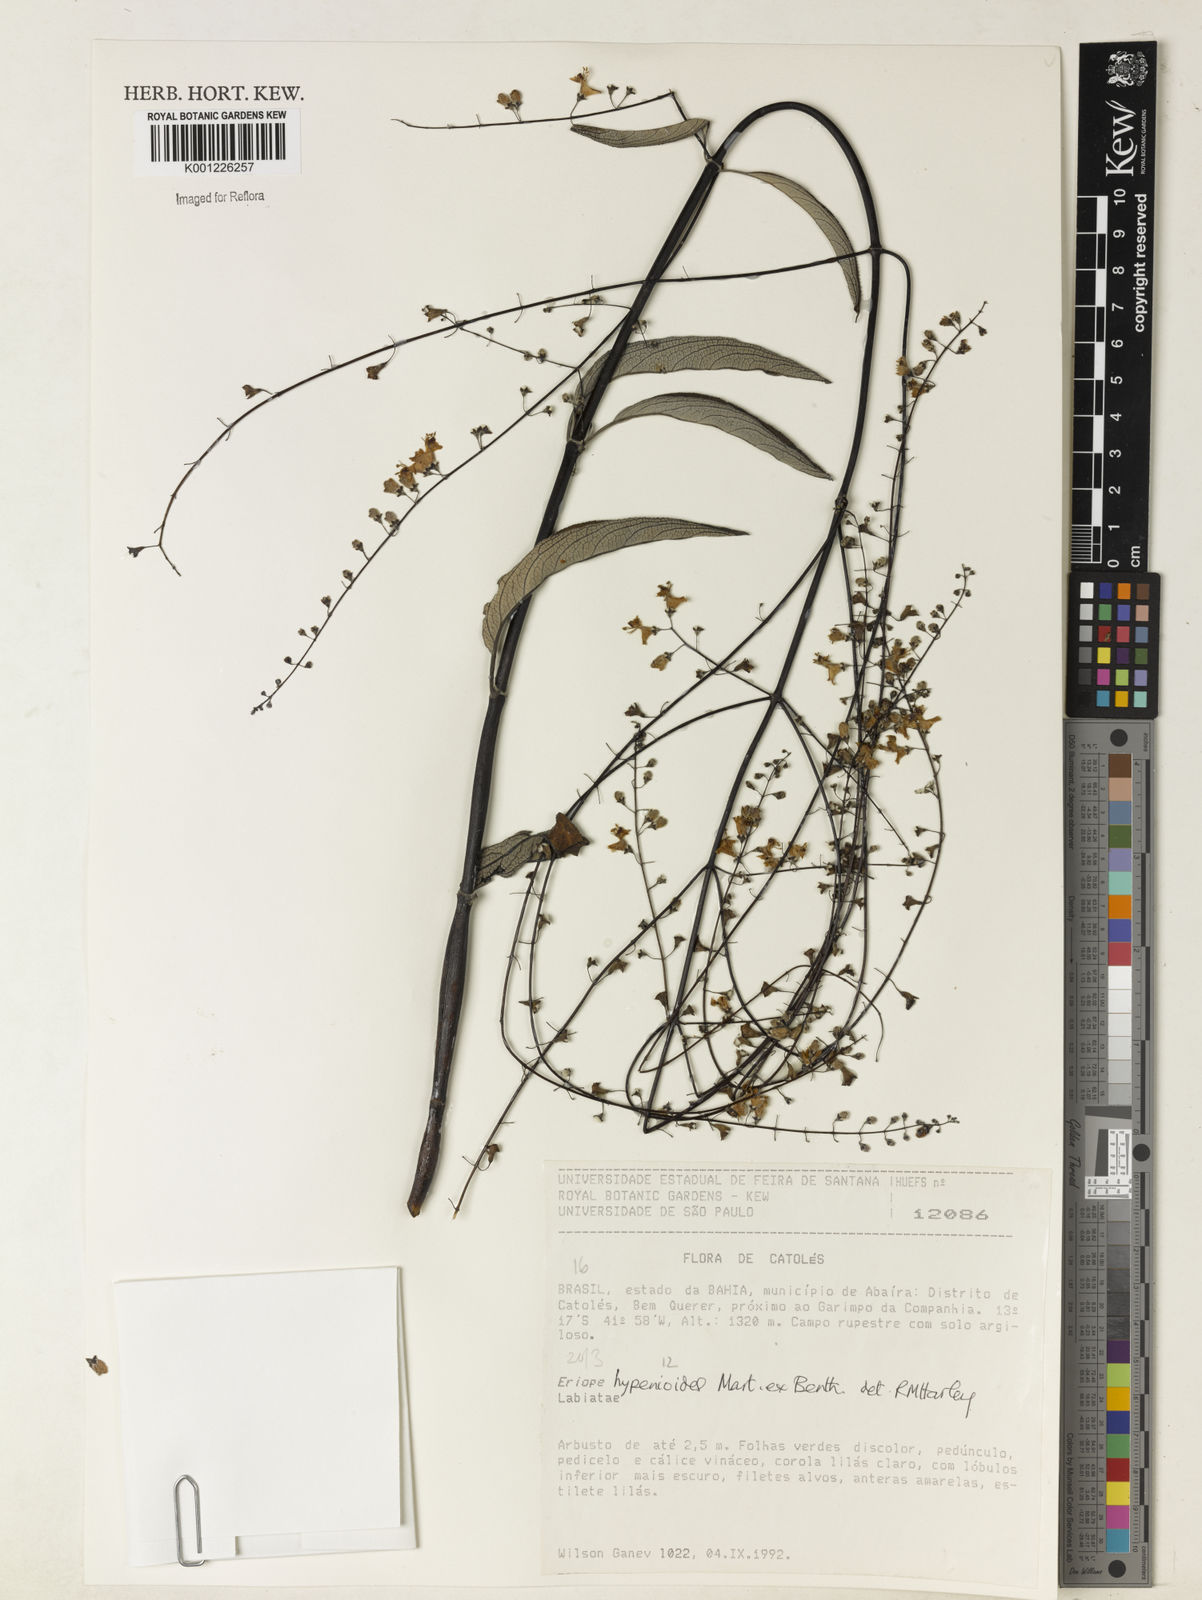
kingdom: Plantae
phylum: Tracheophyta
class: Magnoliopsida
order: Lamiales
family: Lamiaceae
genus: Eriope
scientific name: Eriope hypenioides
